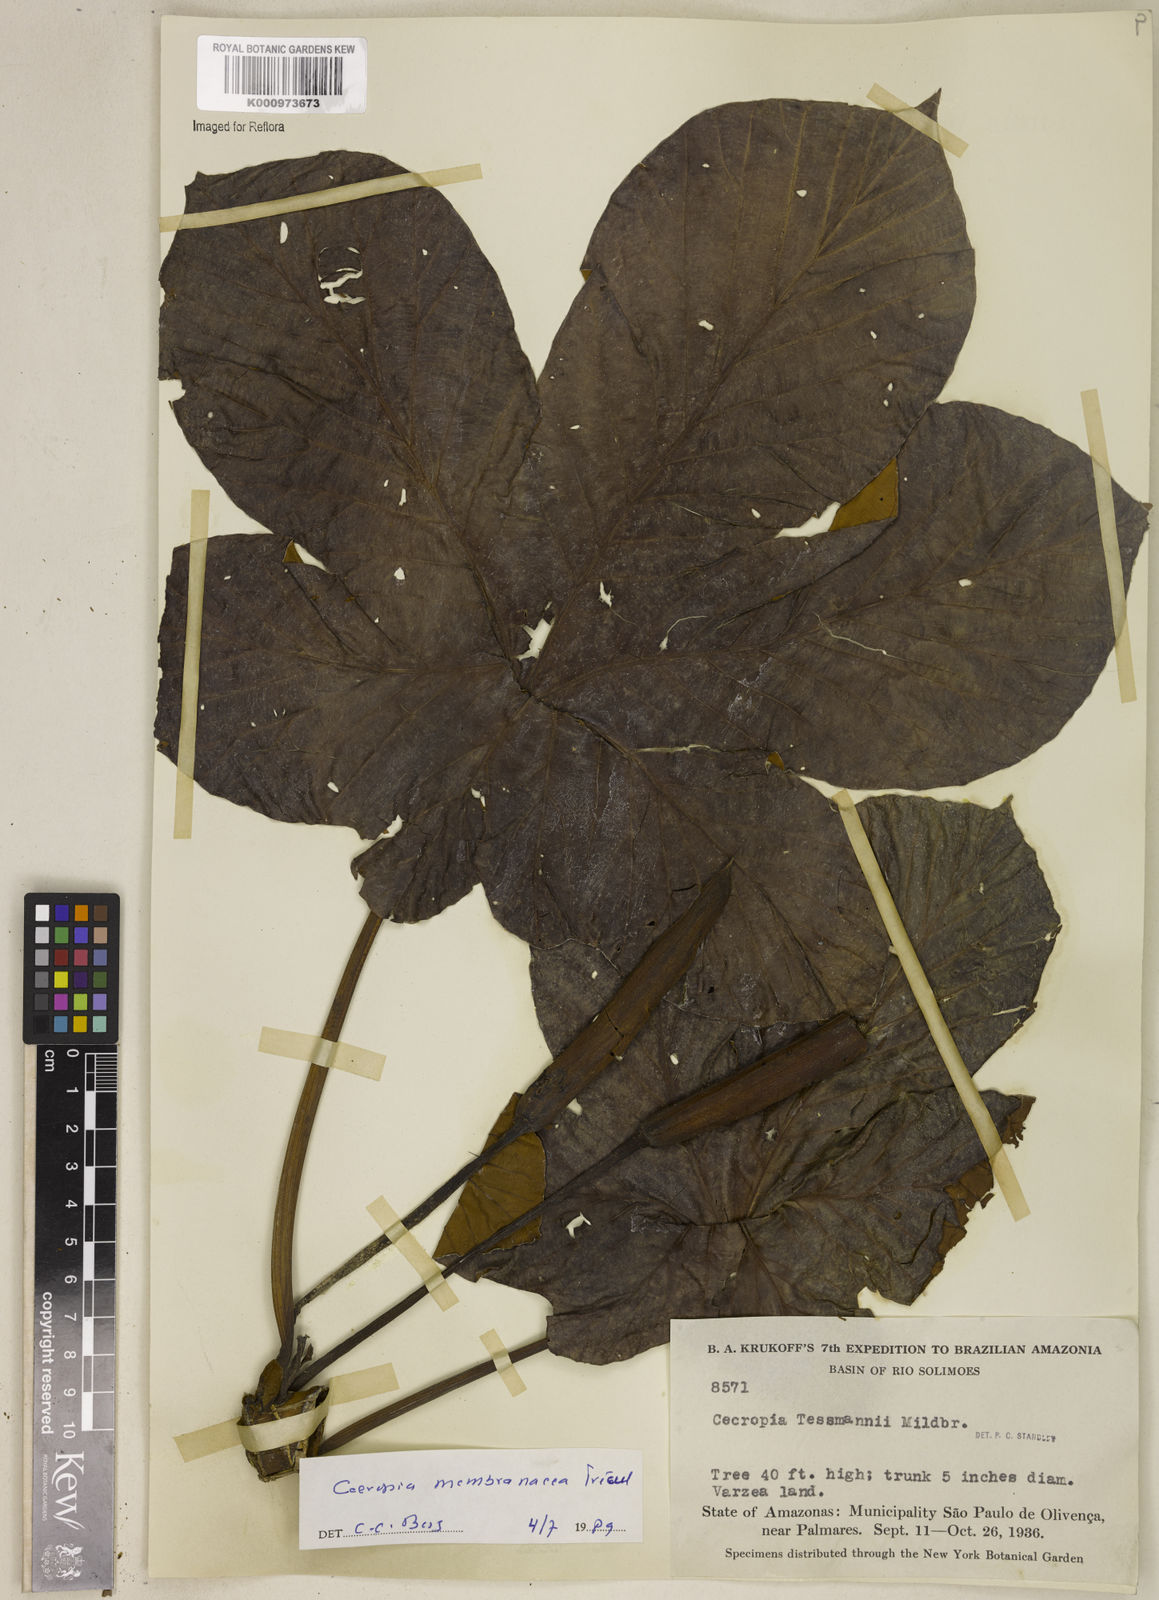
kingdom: Plantae
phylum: Tracheophyta
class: Magnoliopsida
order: Rosales
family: Urticaceae
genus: Cecropia
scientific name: Cecropia
